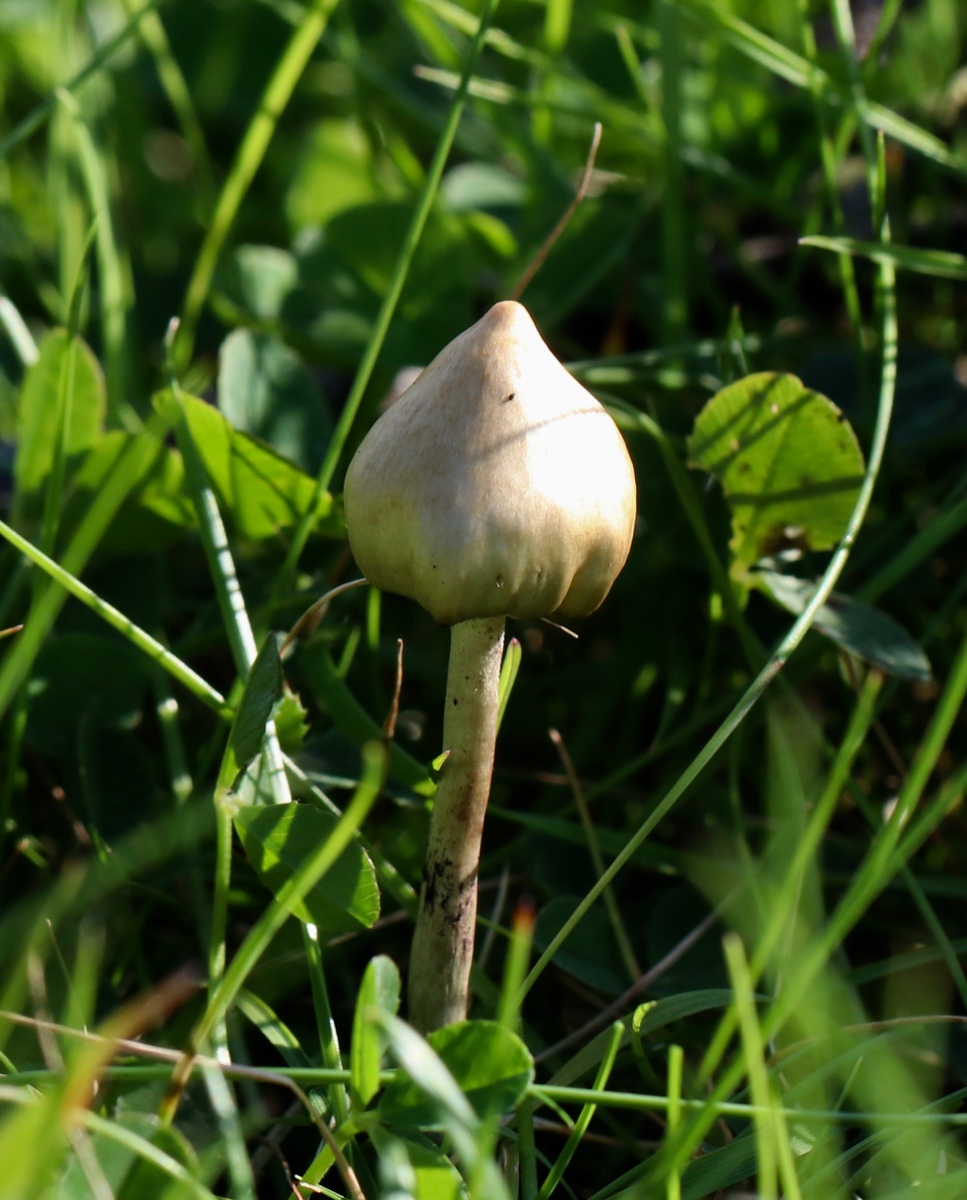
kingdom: Fungi
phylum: Basidiomycota
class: Agaricomycetes
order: Agaricales
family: Hymenogastraceae
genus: Psilocybe
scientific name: Psilocybe semilanceata
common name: spids nøgenhat
